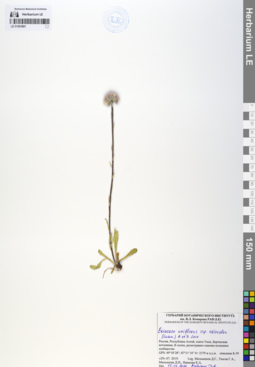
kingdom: Plantae
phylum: Tracheophyta
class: Magnoliopsida
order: Asterales
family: Asteraceae
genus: Erigeron
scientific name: Erigeron eriocalyx
